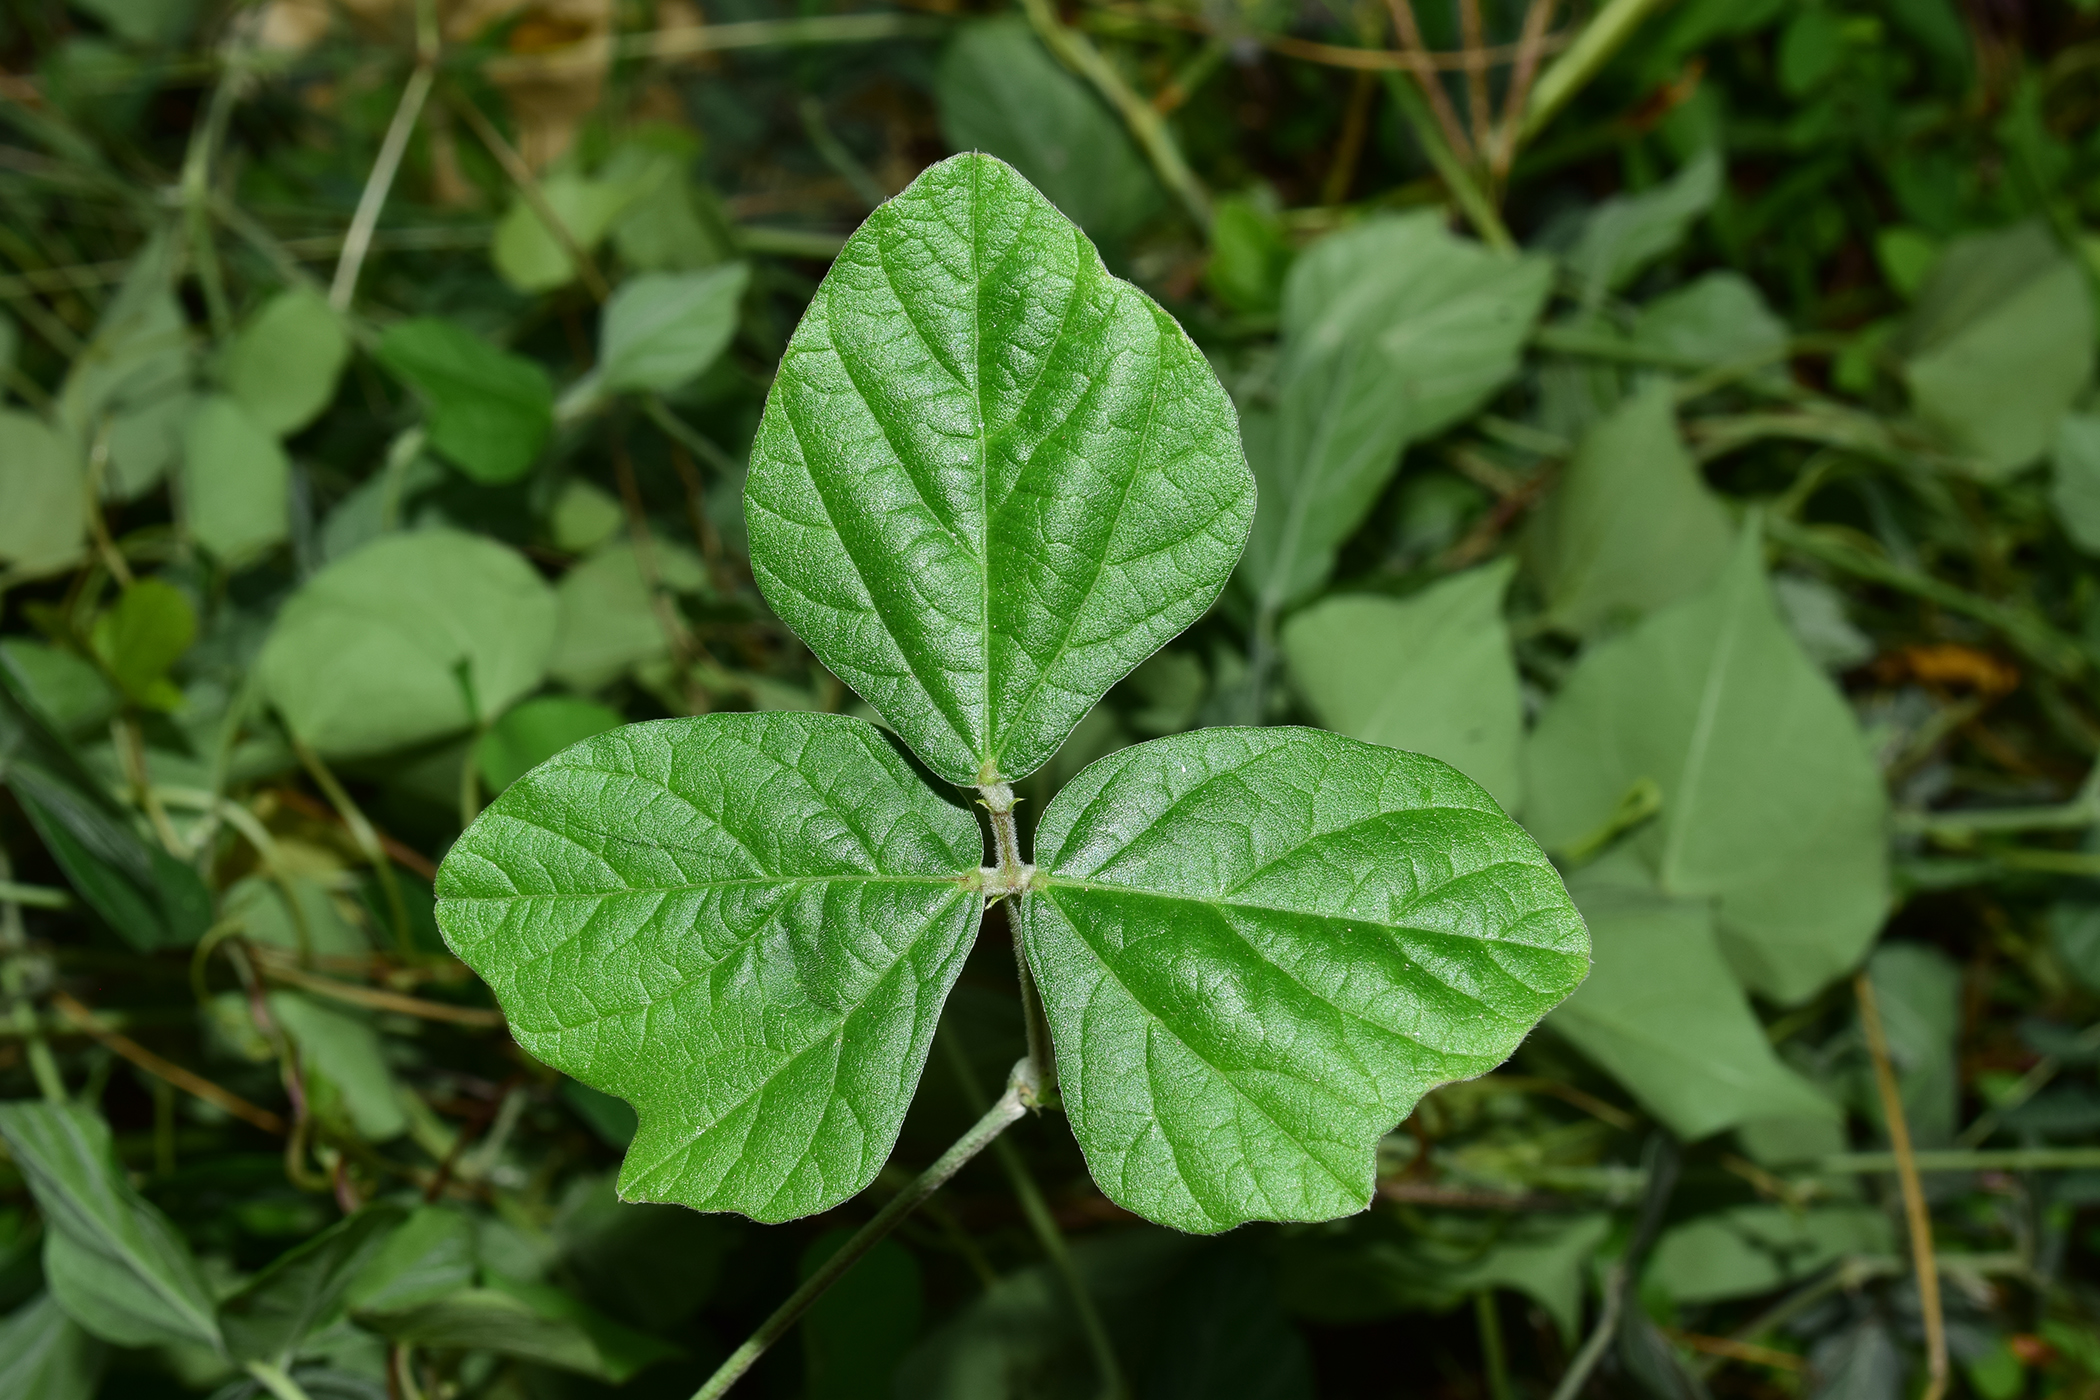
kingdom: Plantae
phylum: Tracheophyta
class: Magnoliopsida
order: Fabales
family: Fabaceae
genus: Macroptilium
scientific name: Macroptilium atropurpureum
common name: Purple bushbean
